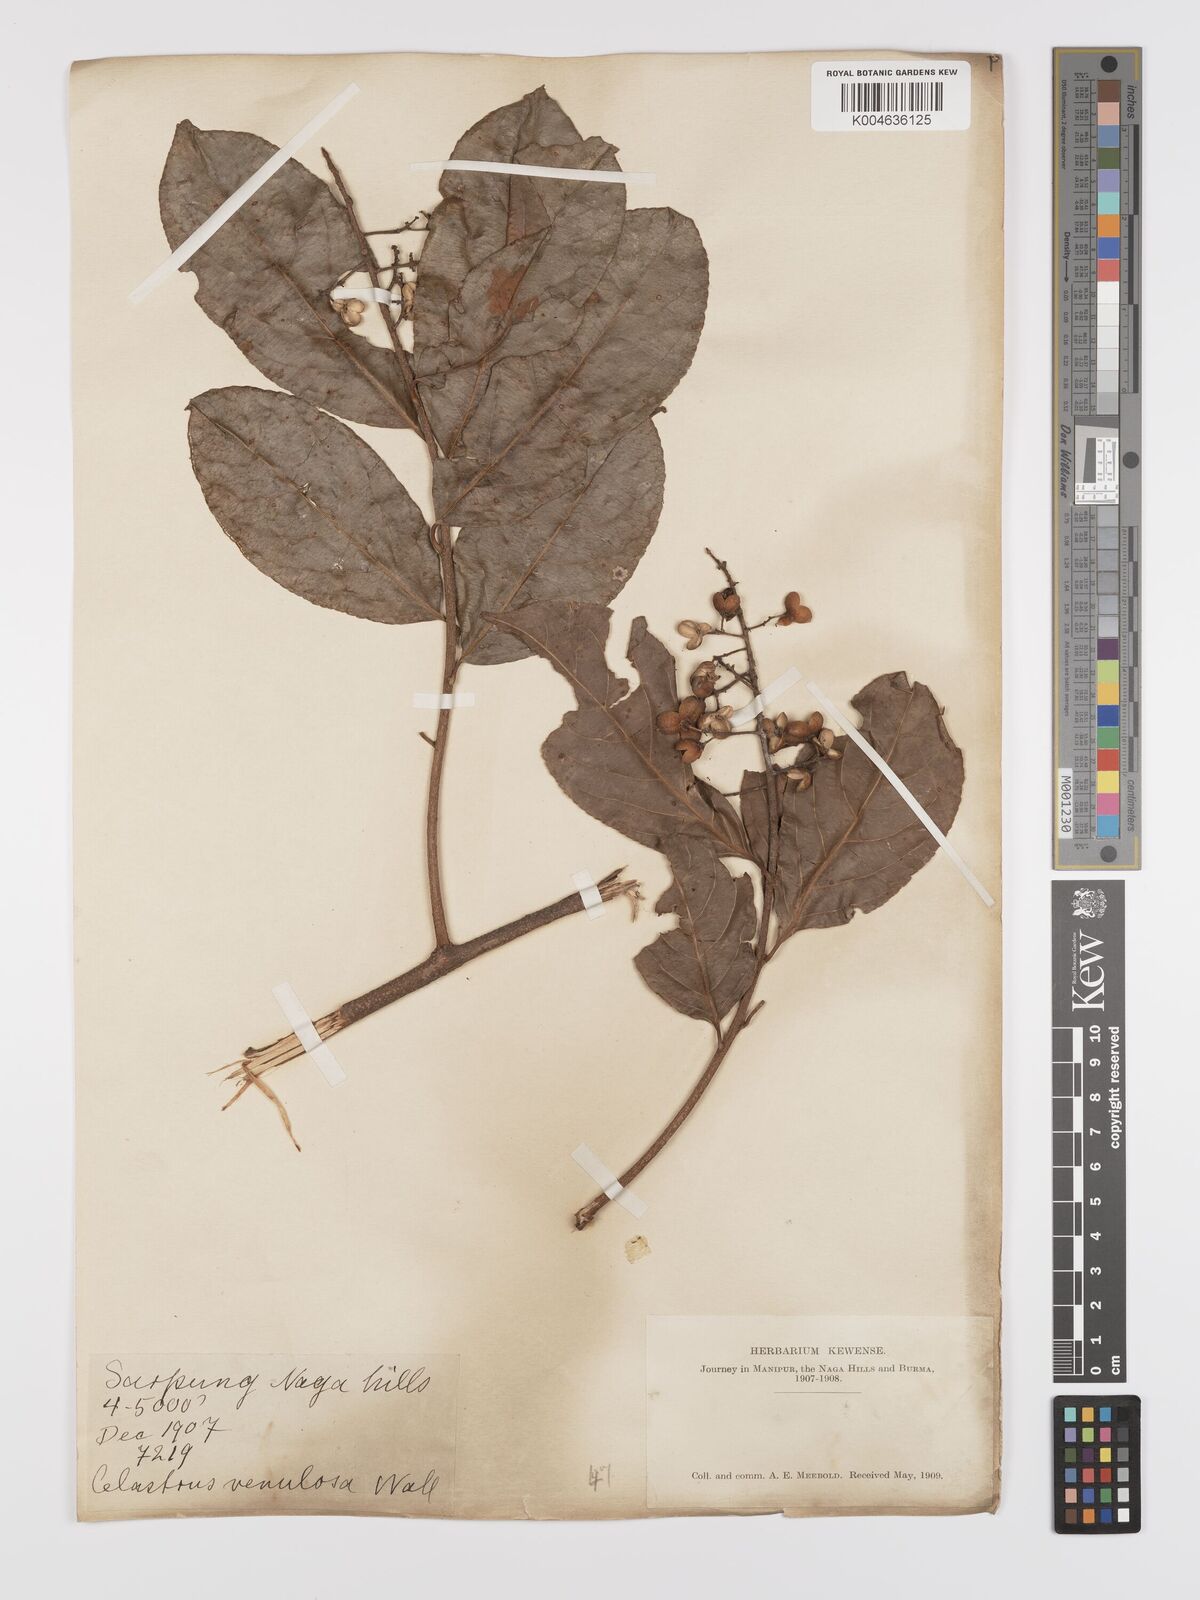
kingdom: Plantae
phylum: Tracheophyta
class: Magnoliopsida
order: Celastrales
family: Celastraceae
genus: Celastrus
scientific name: Celastrus paniculatus
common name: Oriental bittersweet; staff vine
